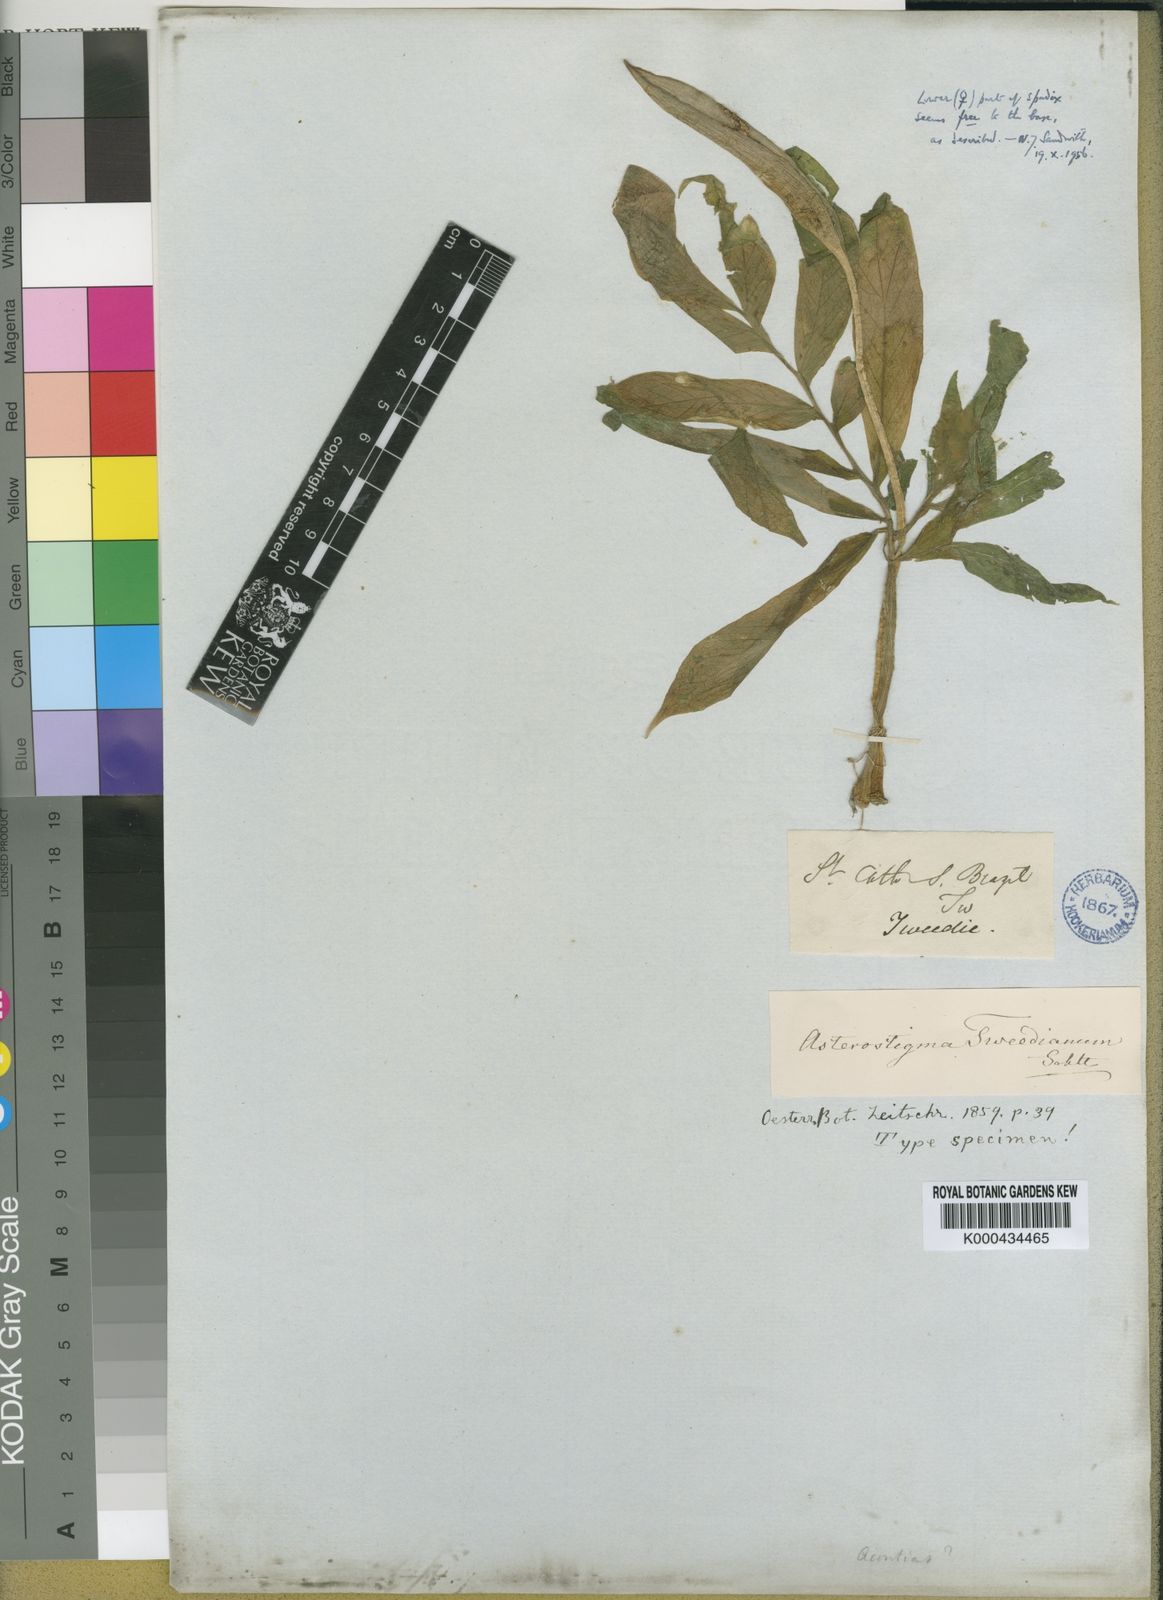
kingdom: Plantae
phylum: Tracheophyta
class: Liliopsida
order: Alismatales
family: Araceae
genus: Asterostigma
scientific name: Asterostigma
